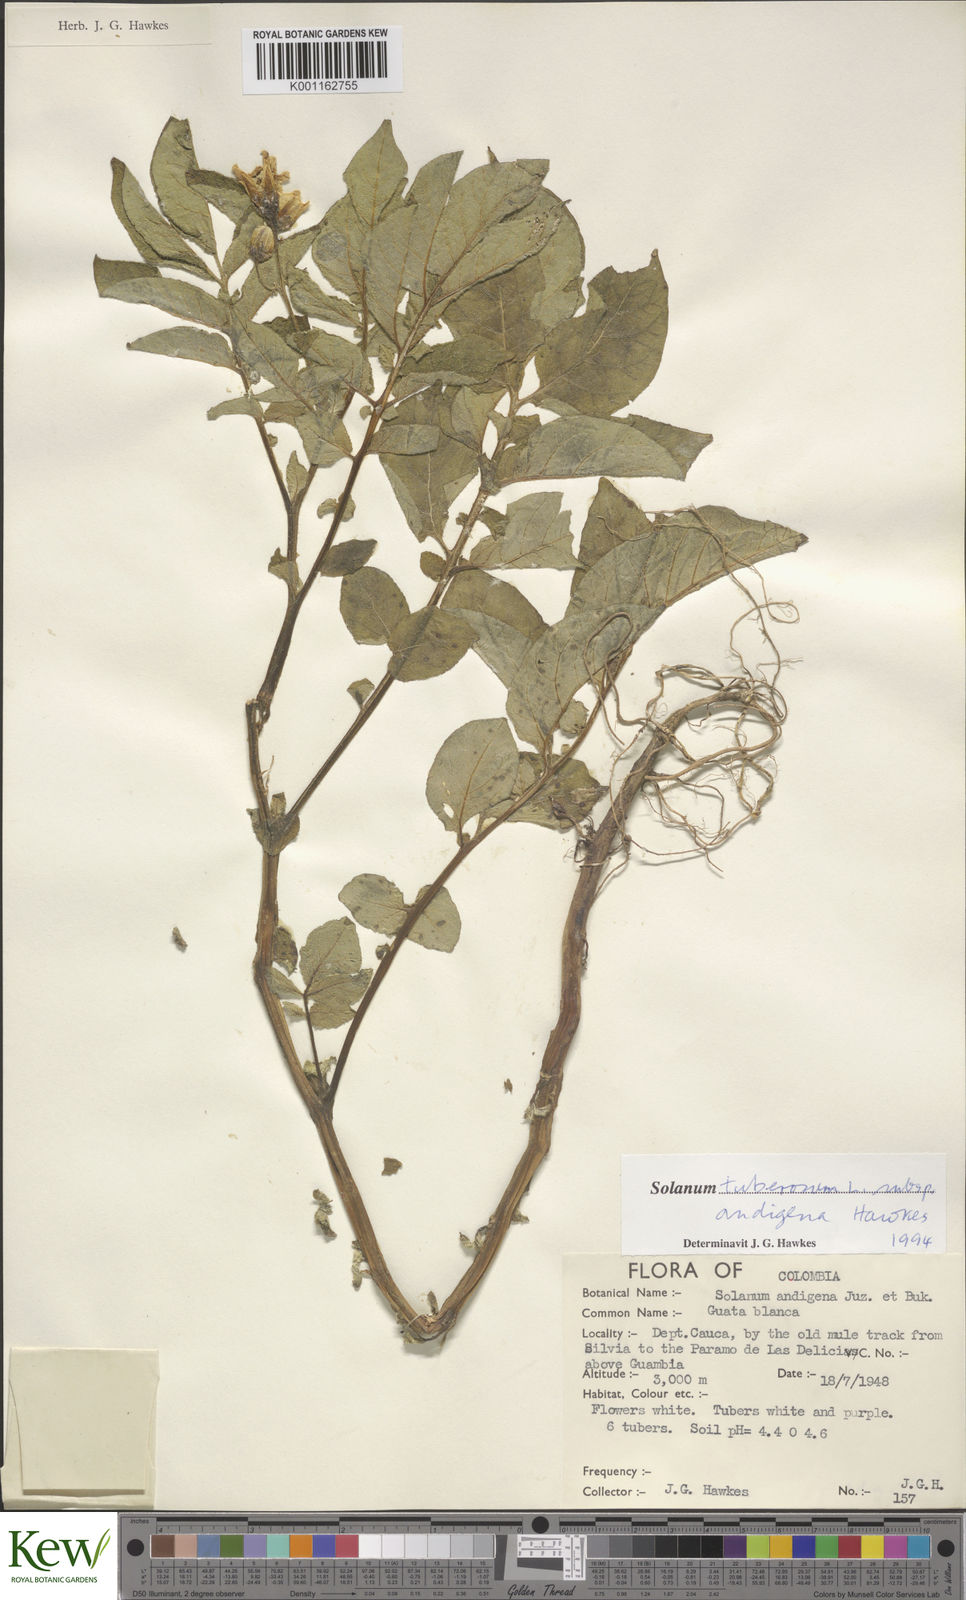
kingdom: Plantae
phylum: Tracheophyta
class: Magnoliopsida
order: Solanales
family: Solanaceae
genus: Solanum
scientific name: Solanum tuberosum
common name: Potato
